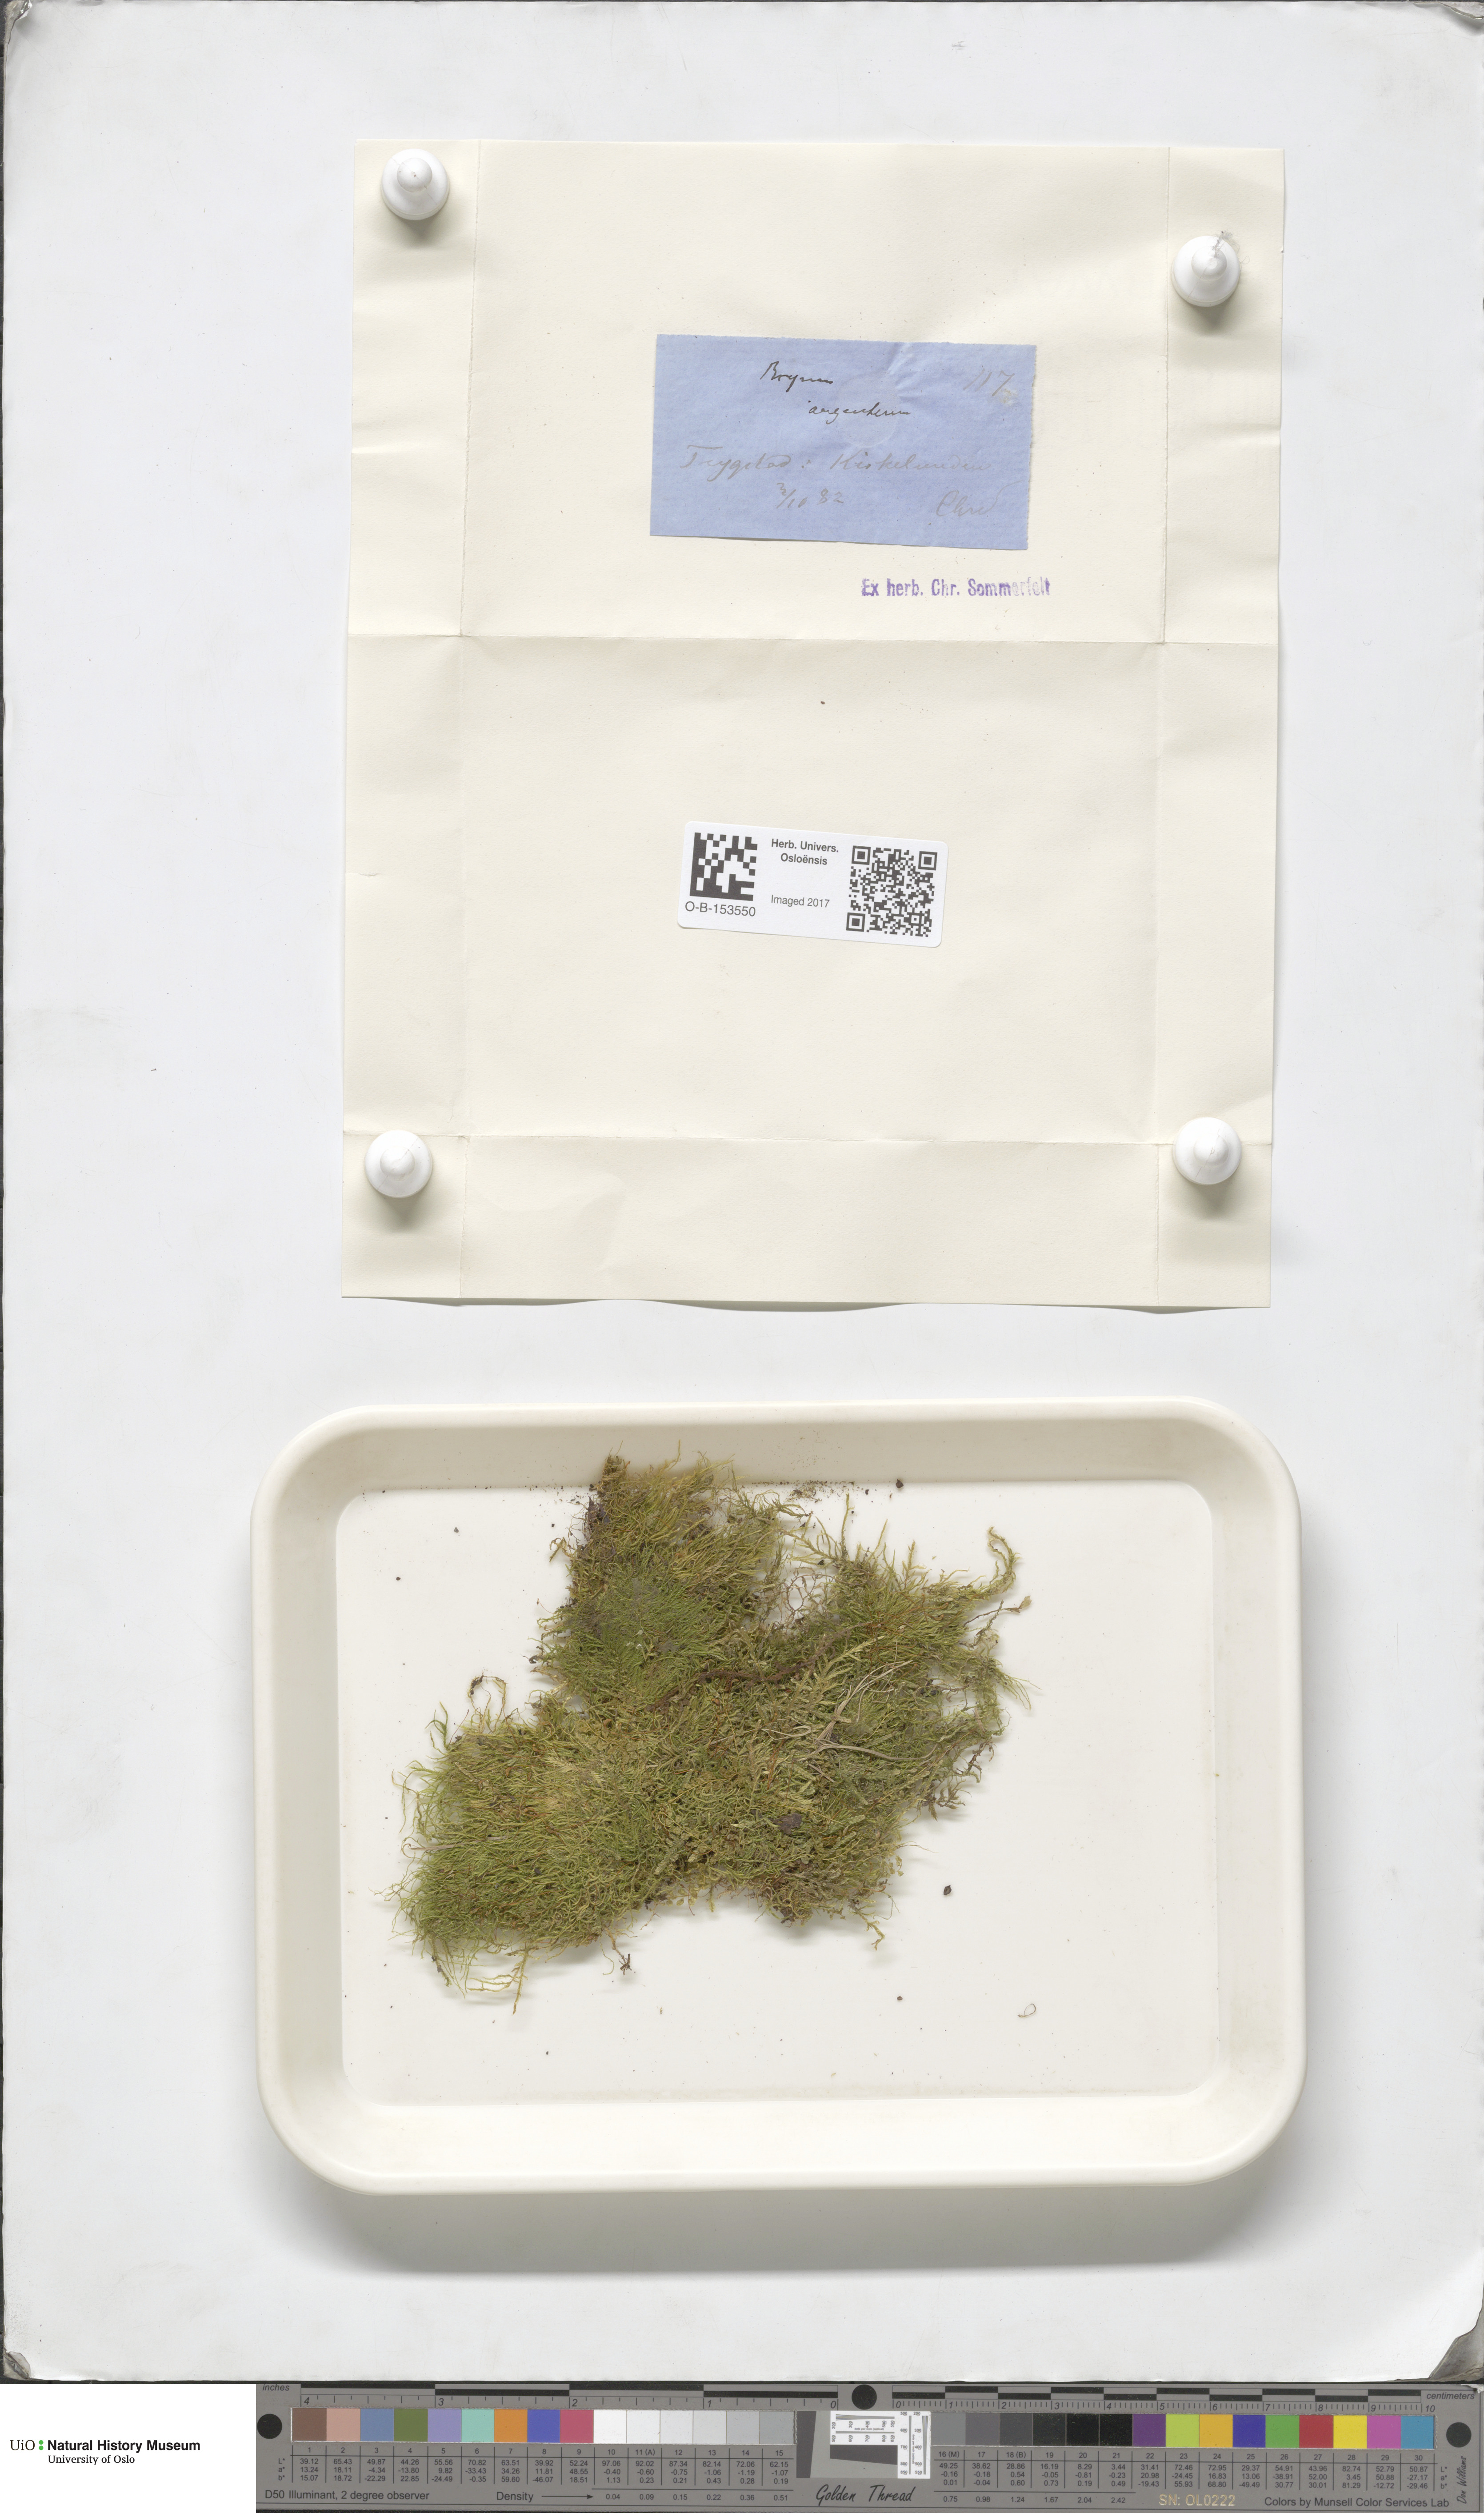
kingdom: Plantae
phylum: Bryophyta
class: Bryopsida
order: Bryales
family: Bryaceae
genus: Bryum
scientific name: Bryum argenteum
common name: Silver-moss
